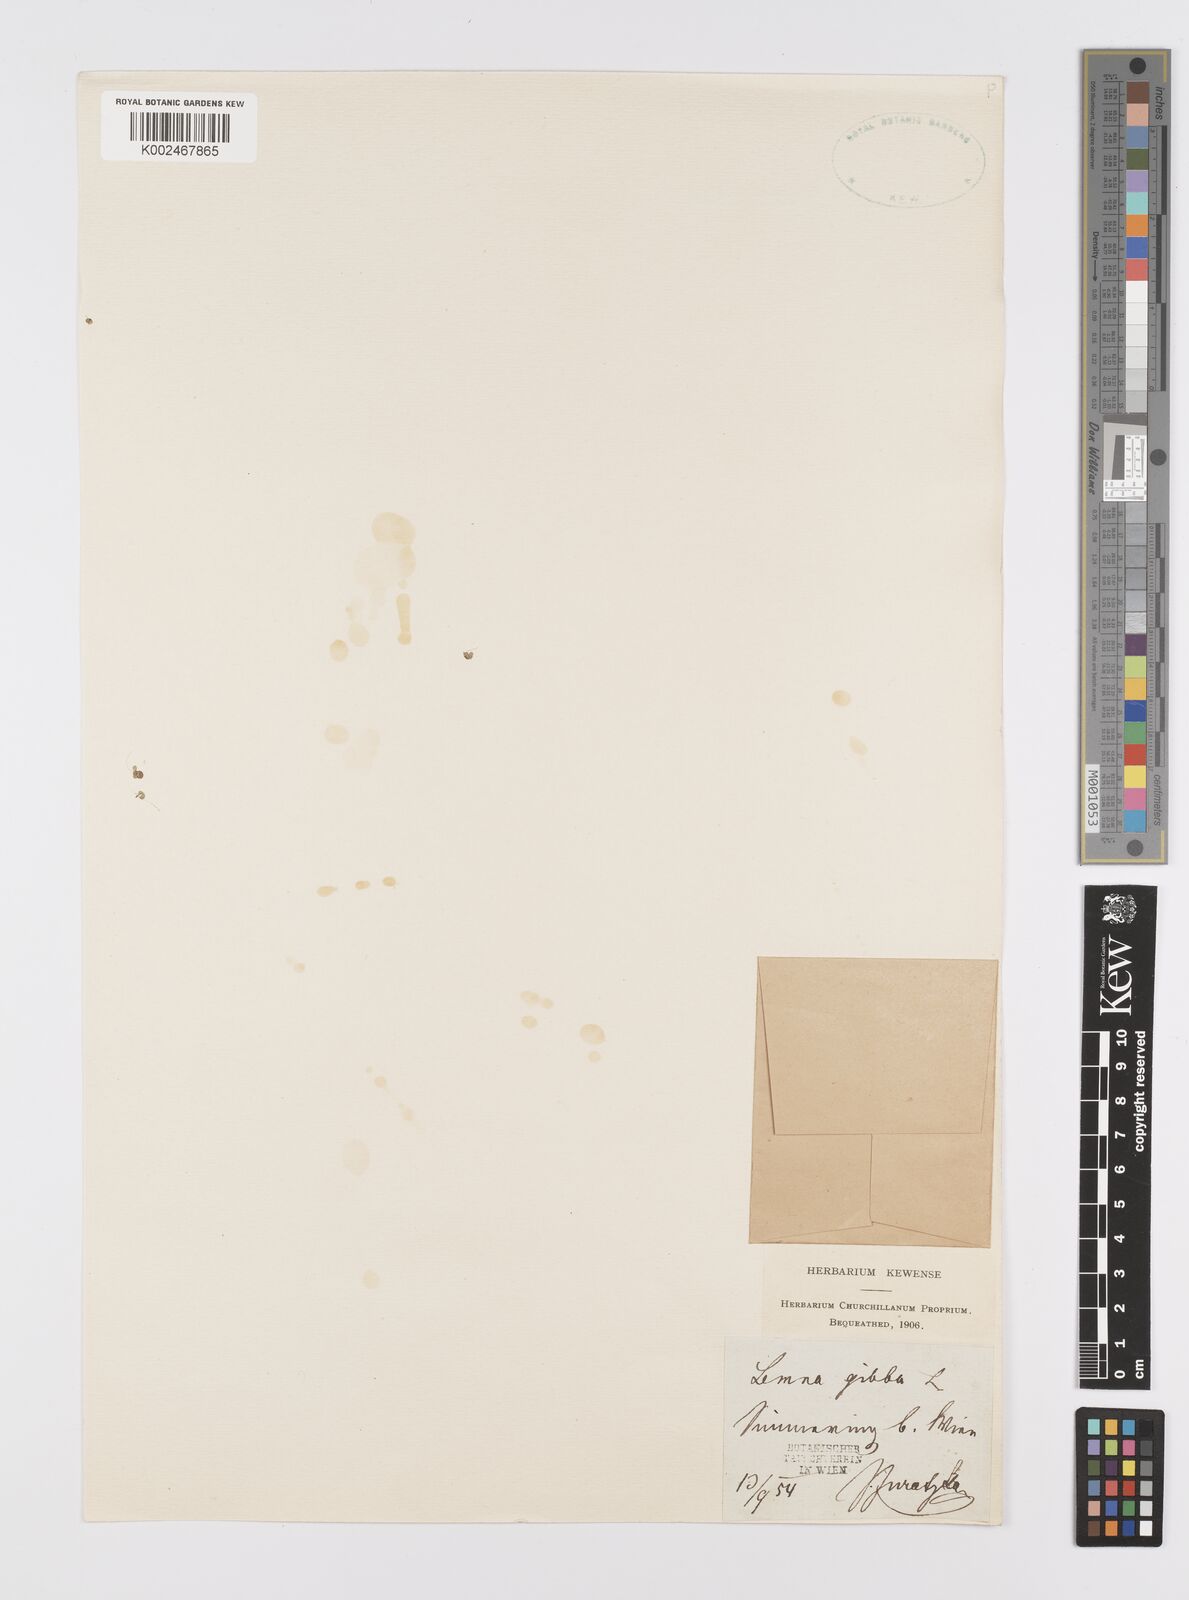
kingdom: Plantae
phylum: Tracheophyta
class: Liliopsida
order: Alismatales
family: Araceae
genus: Lemna
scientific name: Lemna gibba
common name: Fat duckweed
